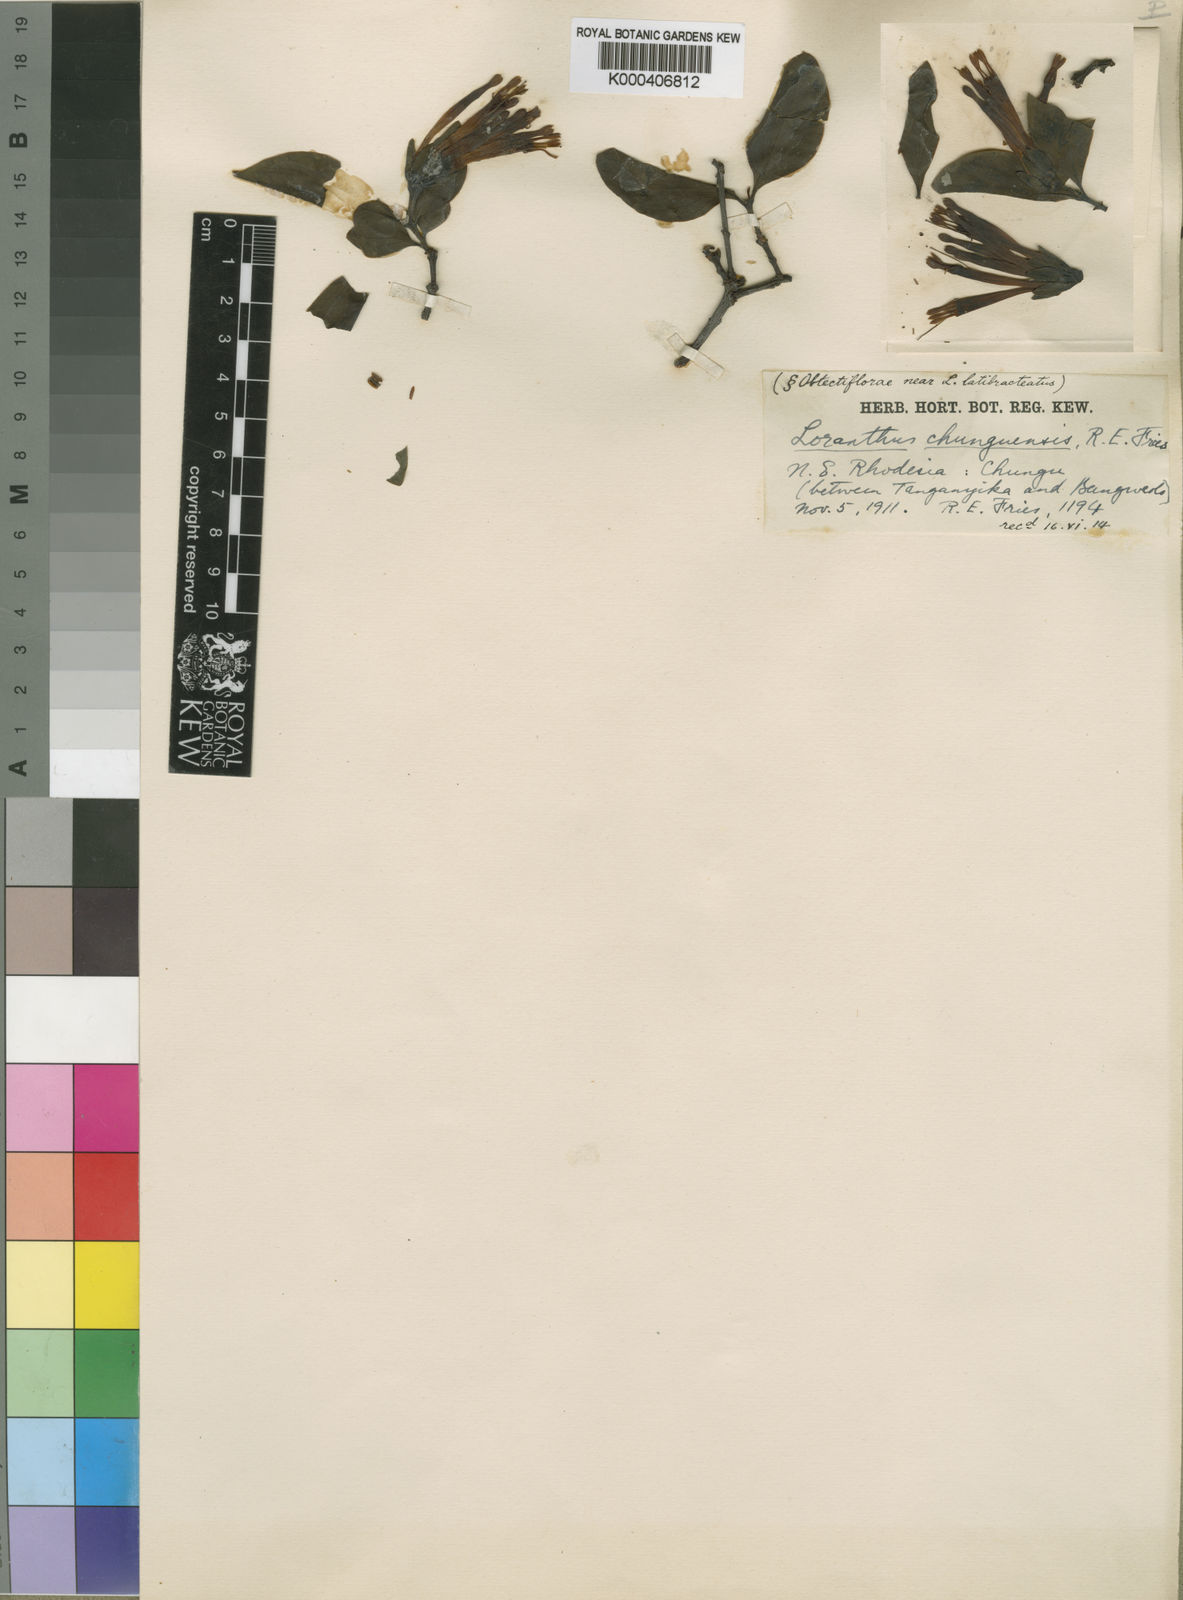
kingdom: Plantae
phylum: Tracheophyta
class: Magnoliopsida
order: Santalales
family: Loranthaceae
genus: Agelanthus
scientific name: Agelanthus subulatus
